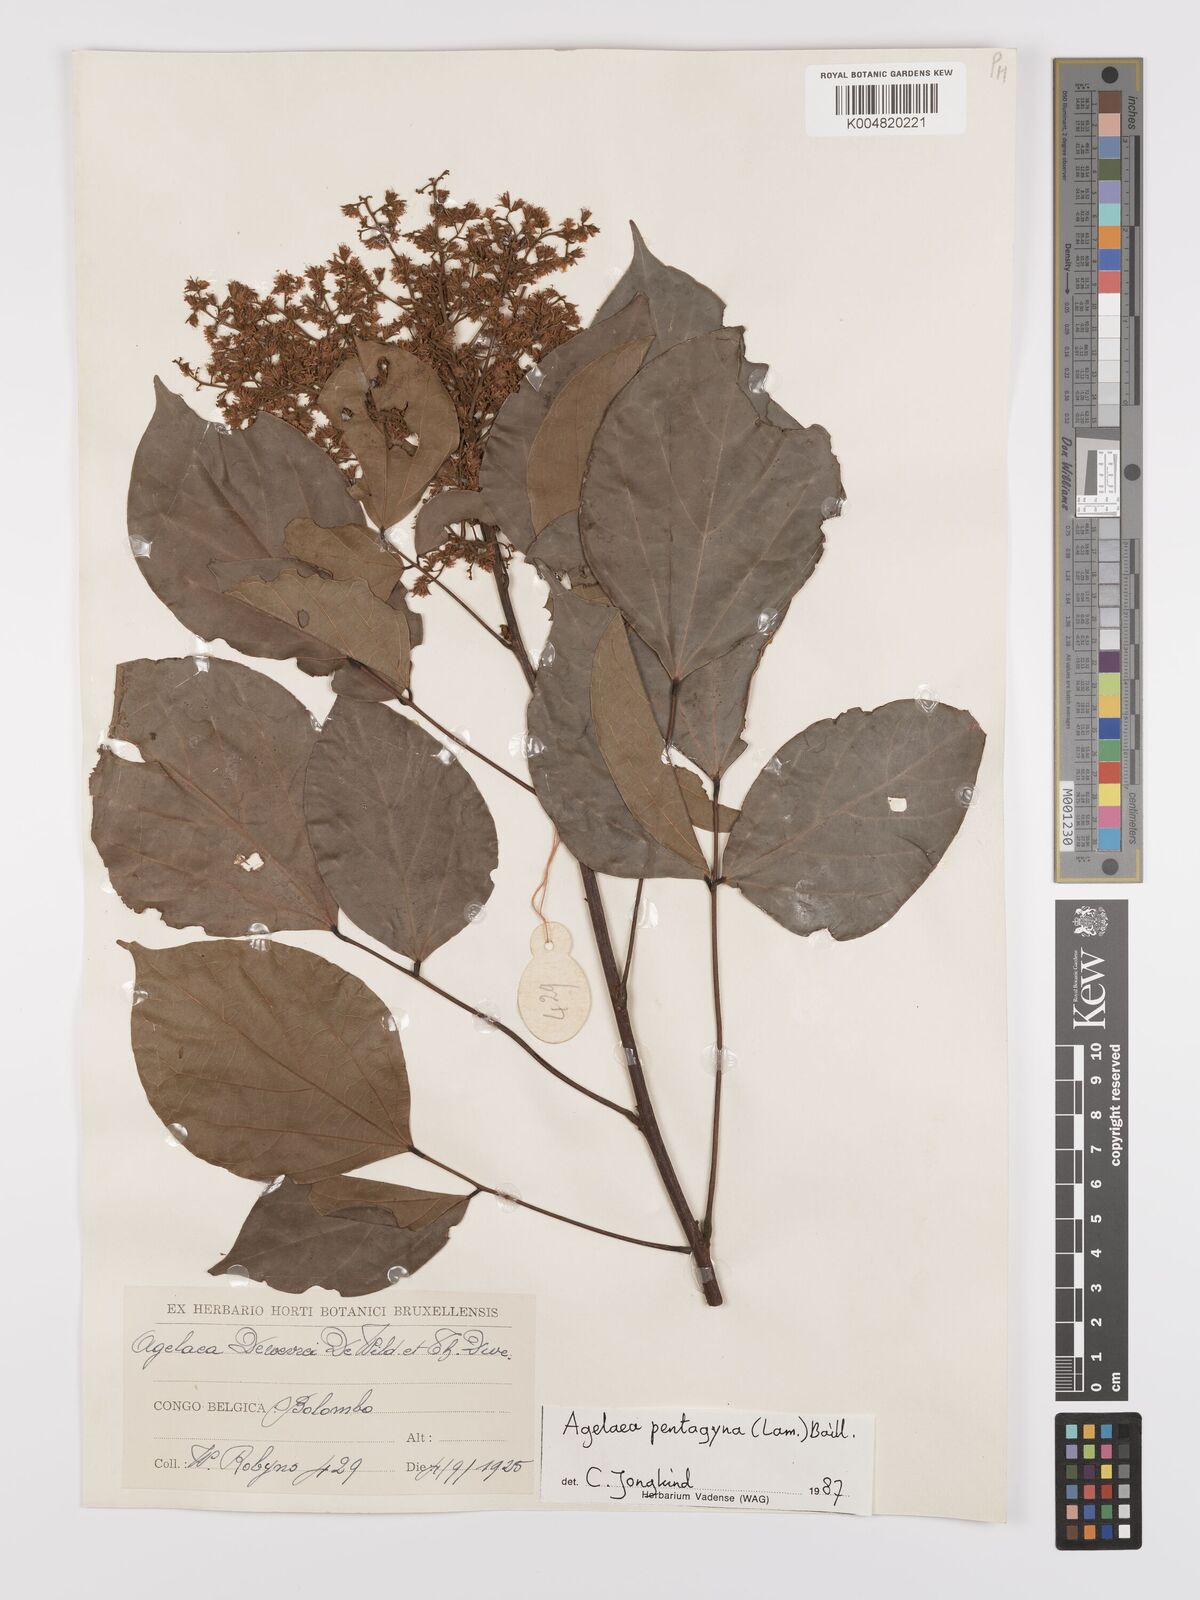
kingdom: Plantae
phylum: Tracheophyta
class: Magnoliopsida
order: Oxalidales
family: Connaraceae
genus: Agelaea
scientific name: Agelaea pentagyna
